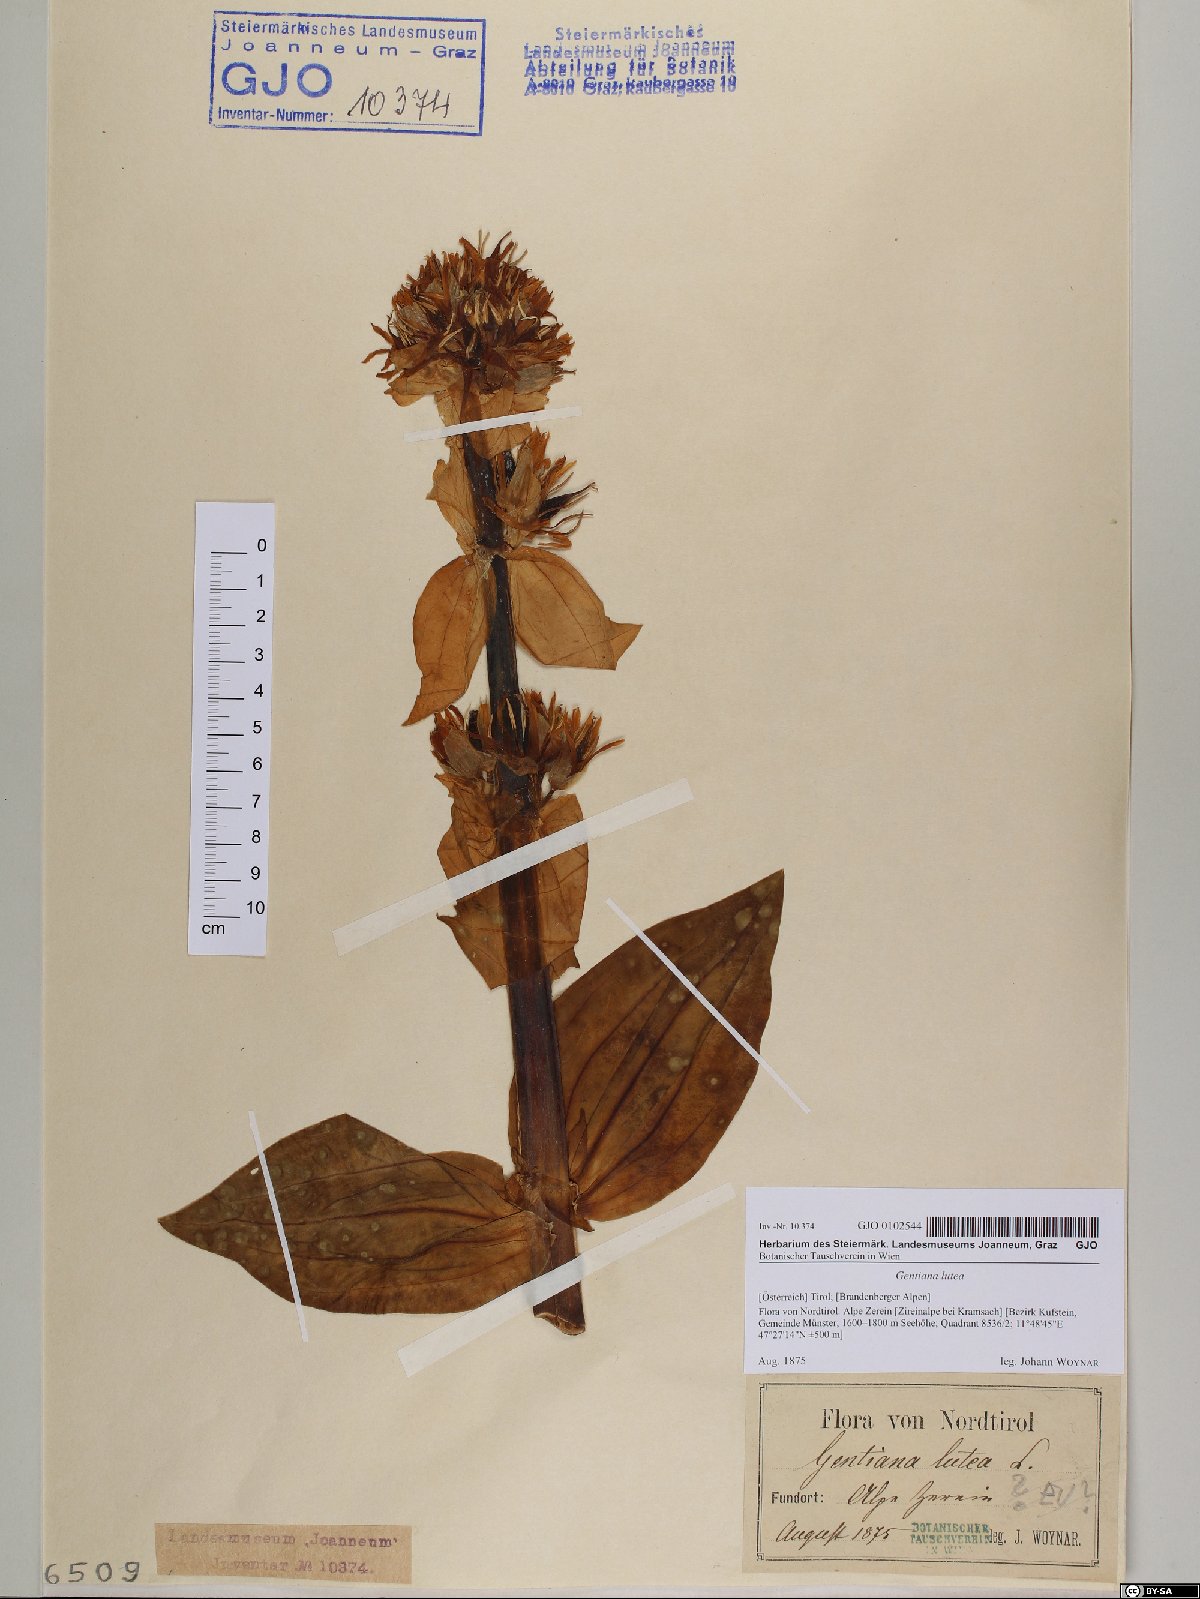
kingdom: Plantae
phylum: Tracheophyta
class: Magnoliopsida
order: Gentianales
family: Gentianaceae
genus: Gentiana
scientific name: Gentiana lutea
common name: Great yellow gentian
